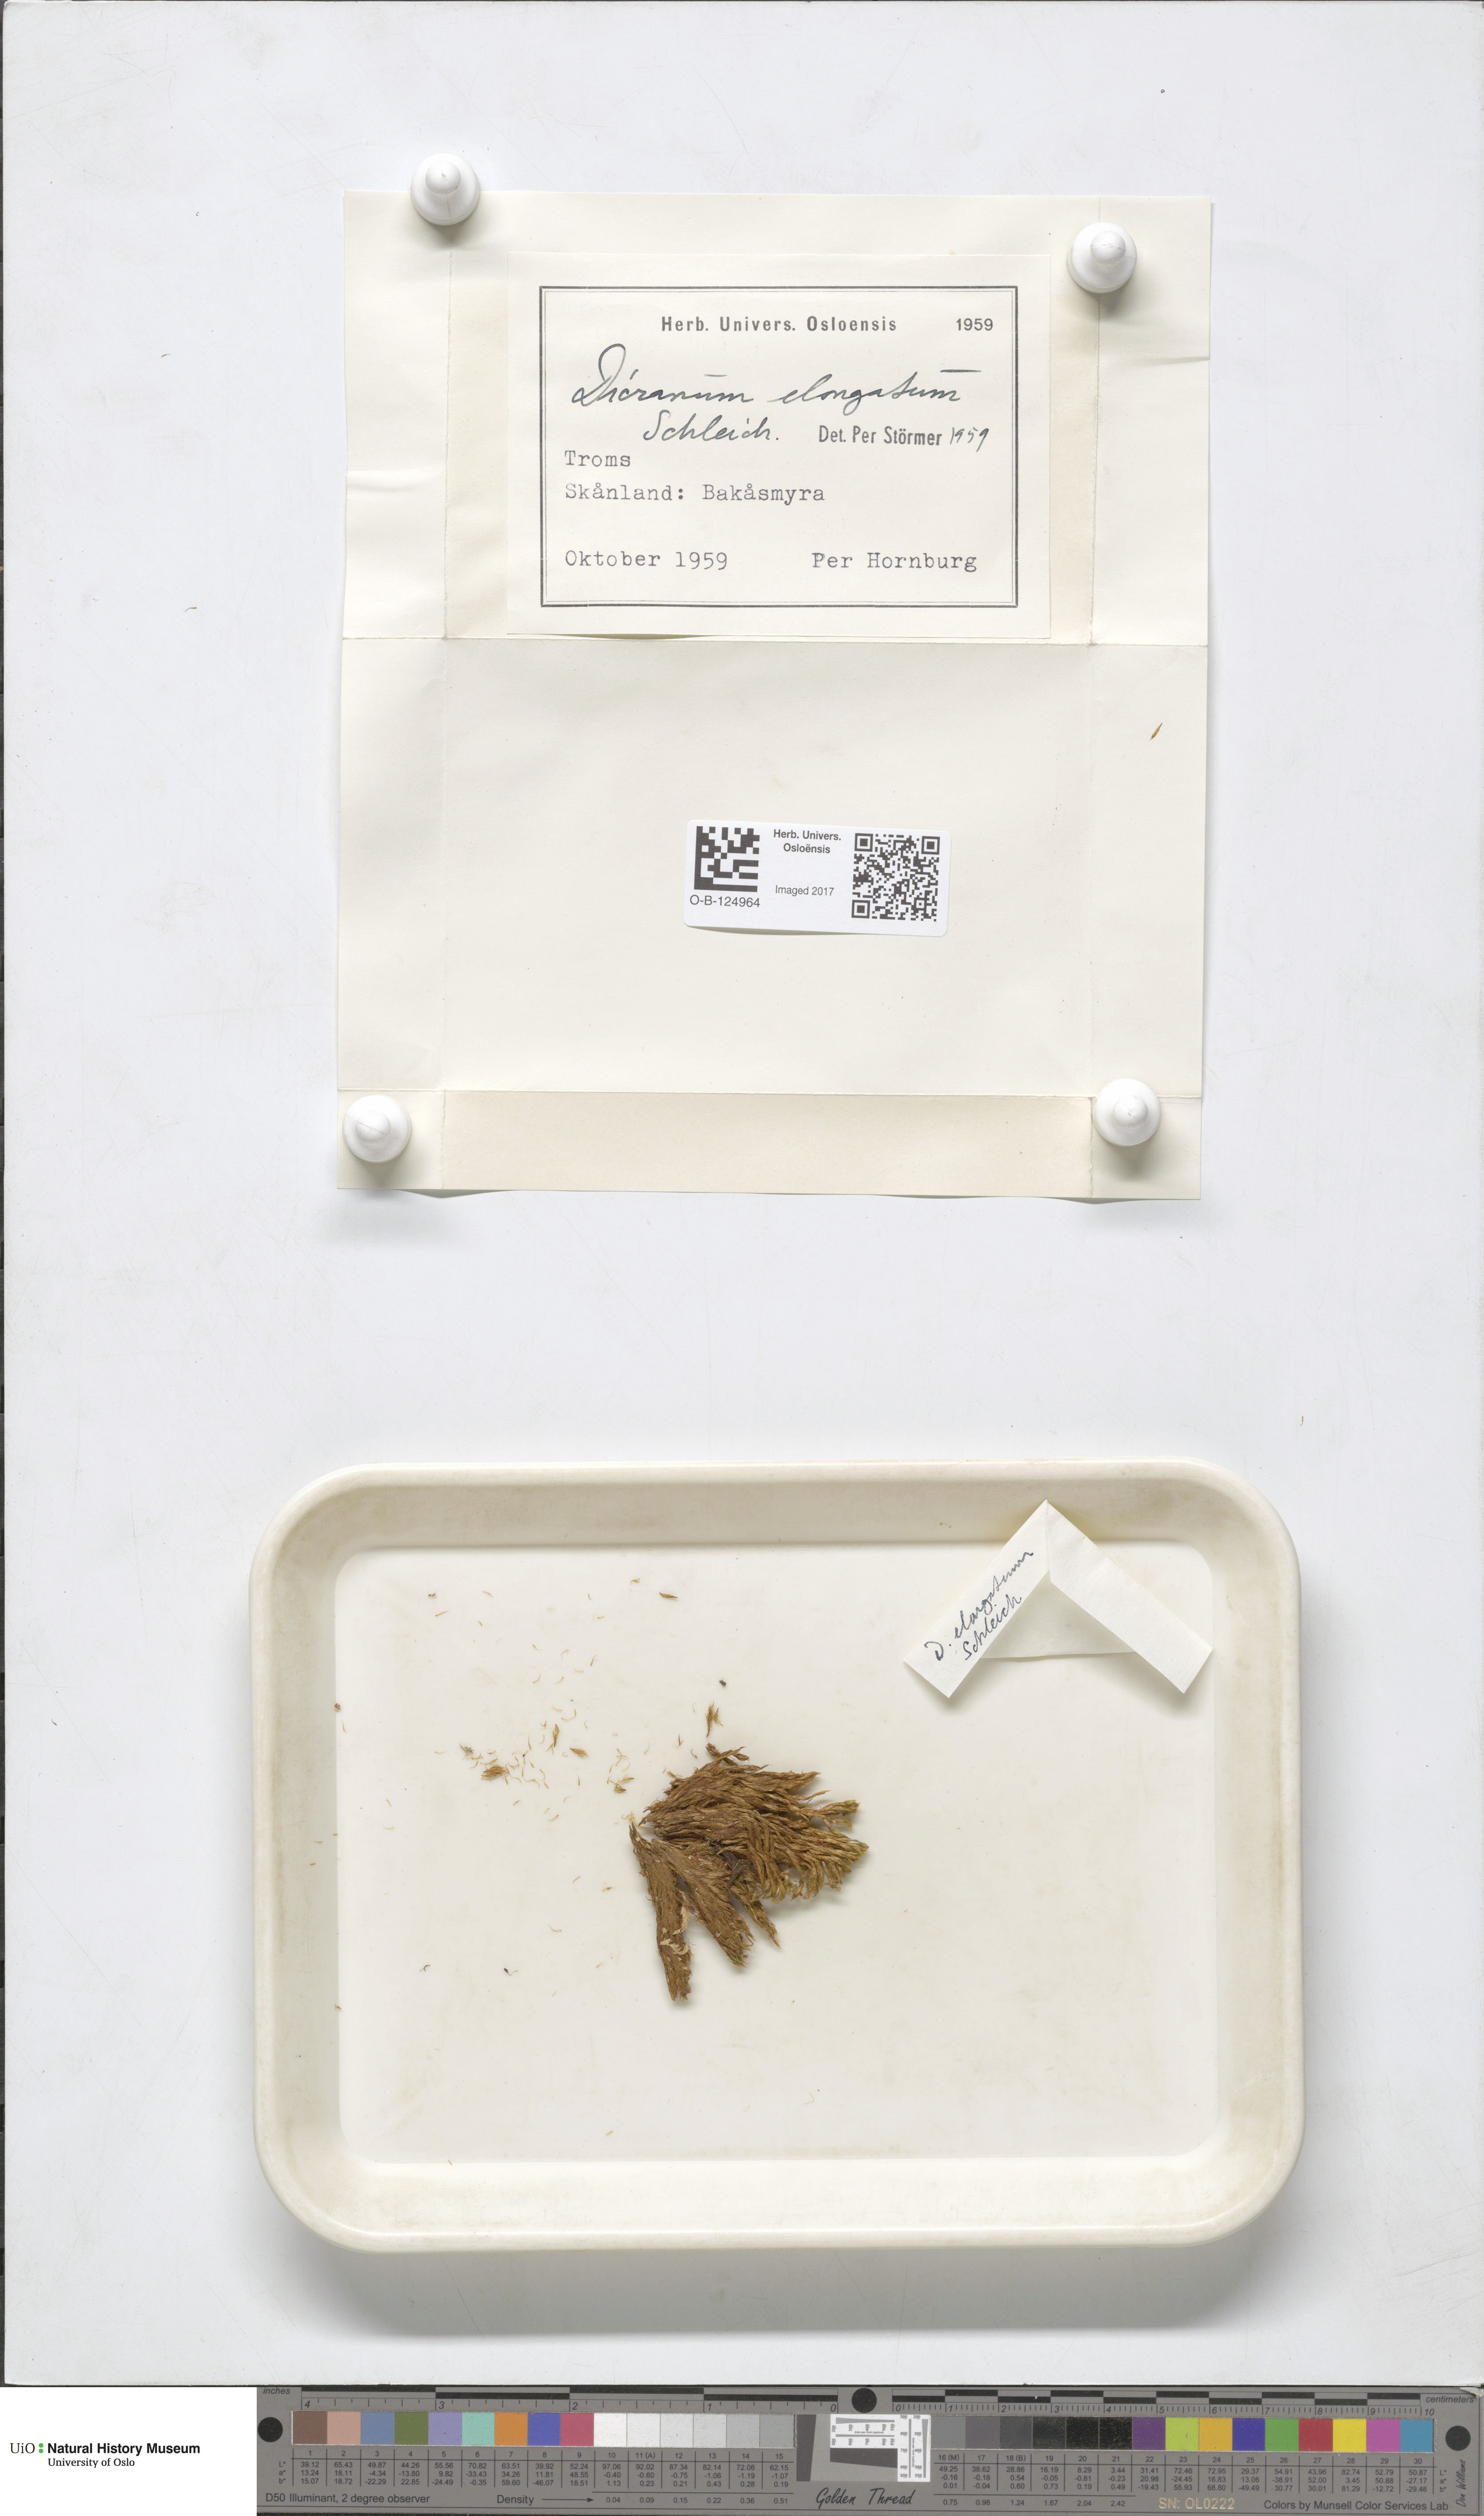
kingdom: Plantae
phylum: Bryophyta
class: Bryopsida
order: Dicranales
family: Dicranaceae
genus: Dicranum
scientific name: Dicranum elongatum
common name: Long-forked broom moss
